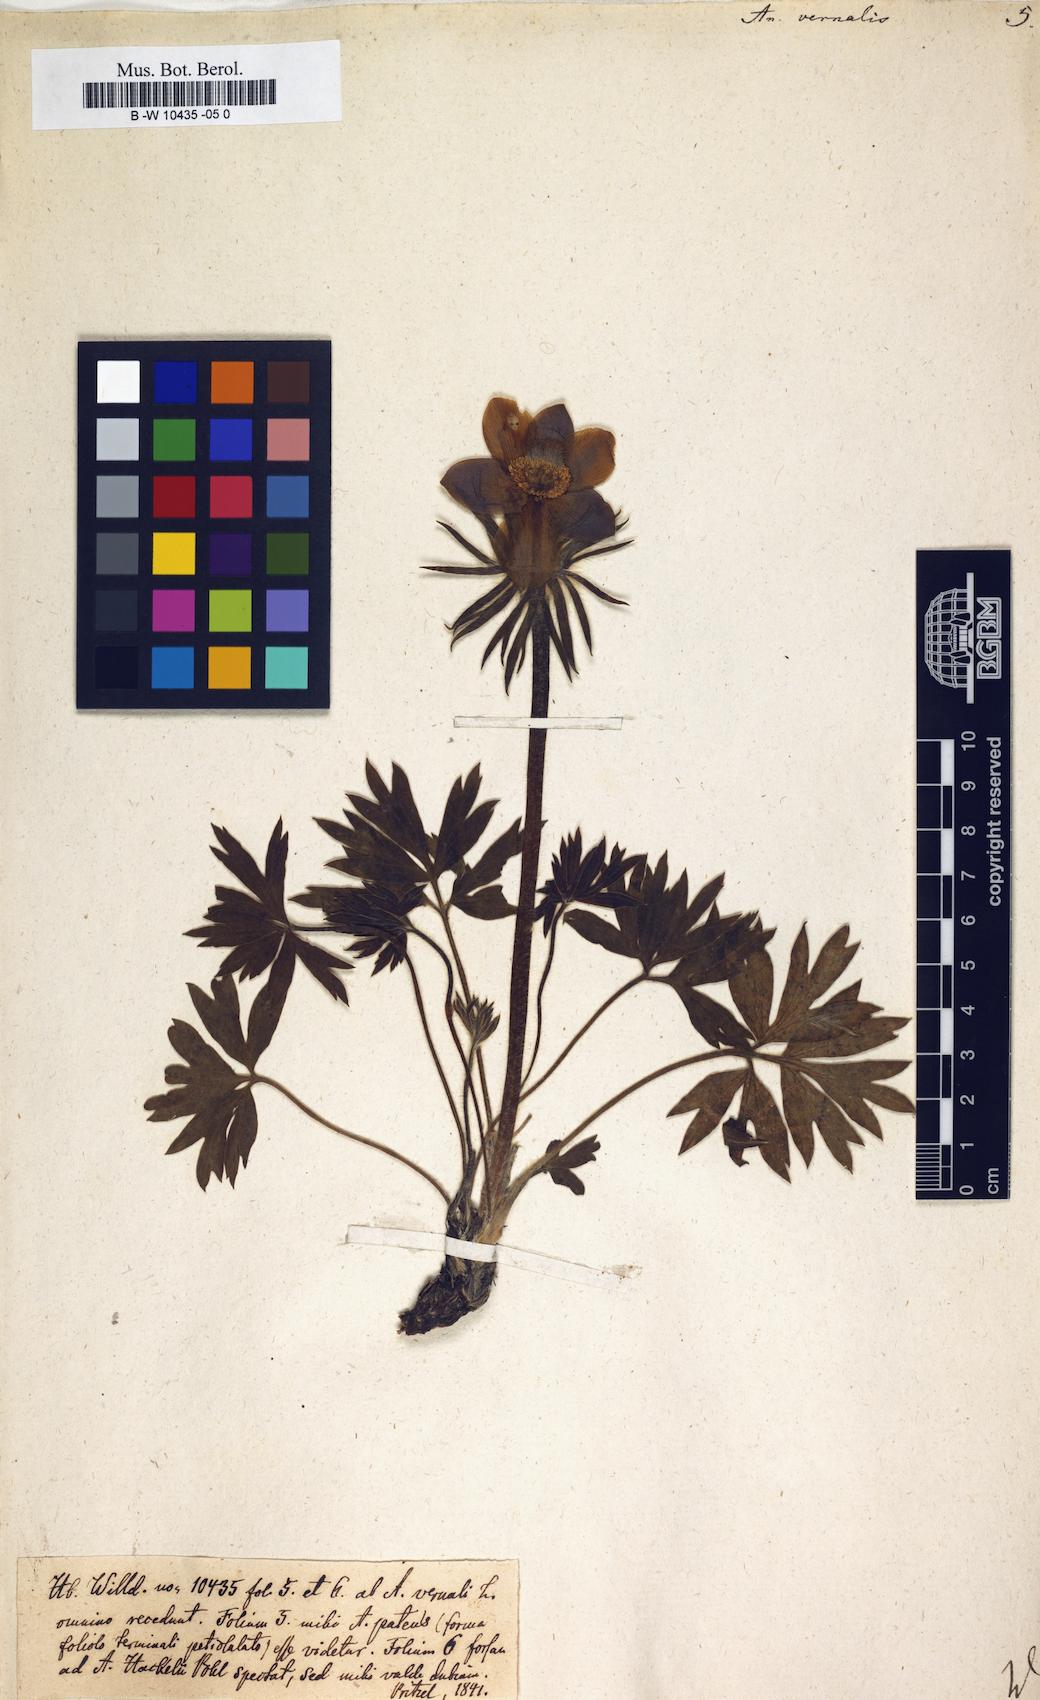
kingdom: Plantae
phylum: Tracheophyta
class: Magnoliopsida
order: Ranunculales
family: Ranunculaceae
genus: Pulsatilla
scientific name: Pulsatilla vernalis
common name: Spring pasque flower
